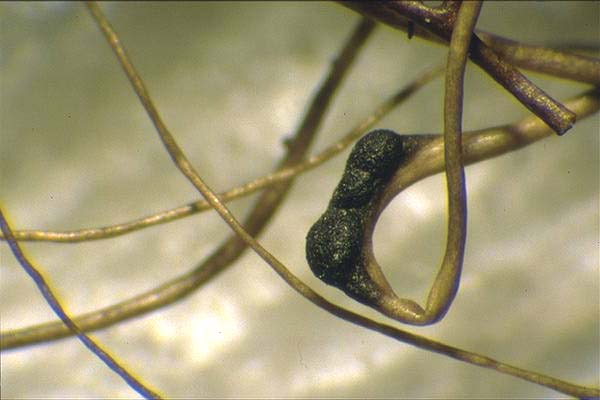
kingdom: Fungi
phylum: Ascomycota
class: Lecanoromycetes
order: Lecanorales
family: Parmeliaceae
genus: Protousnea
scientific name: Protousnea huuskonenii
